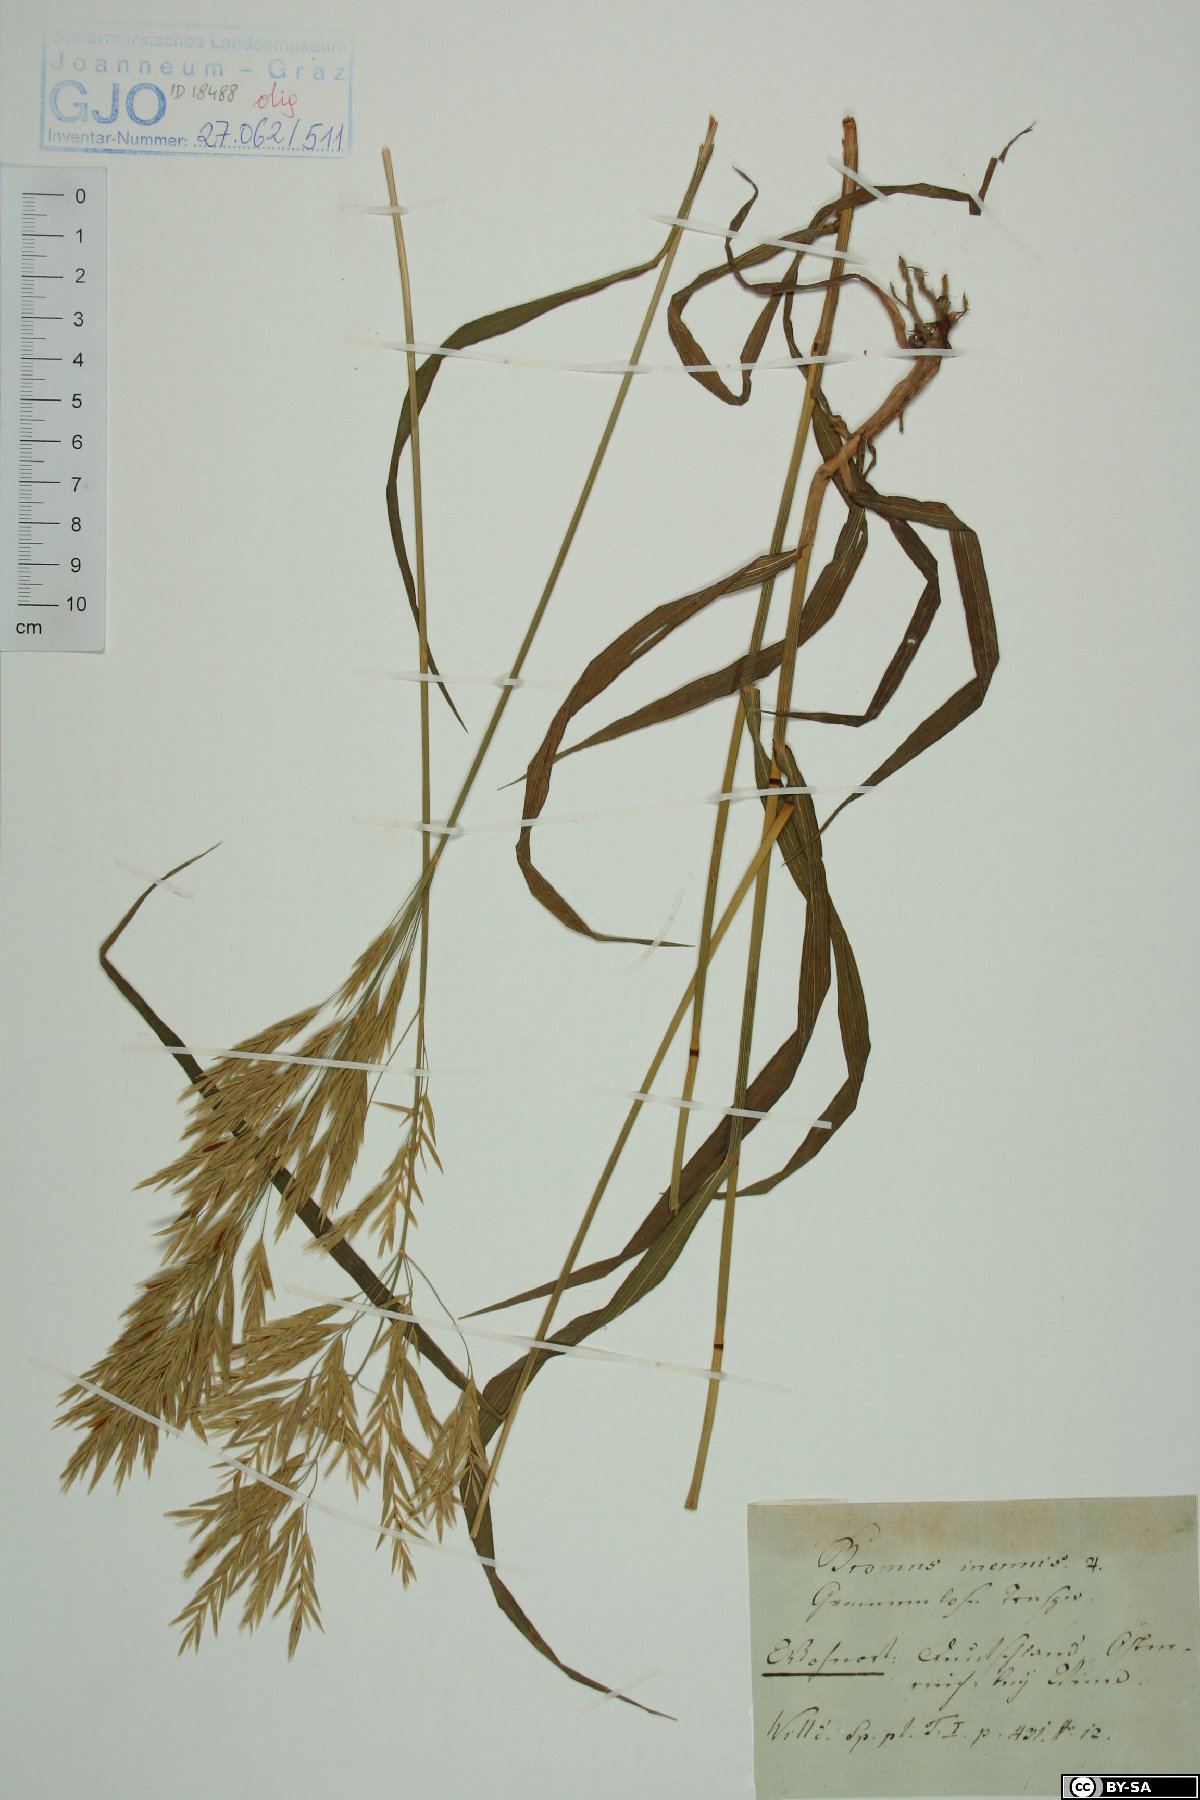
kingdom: Plantae
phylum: Tracheophyta
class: Liliopsida
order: Poales
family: Poaceae
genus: Bromus
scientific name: Bromus inermis
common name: Smooth brome
